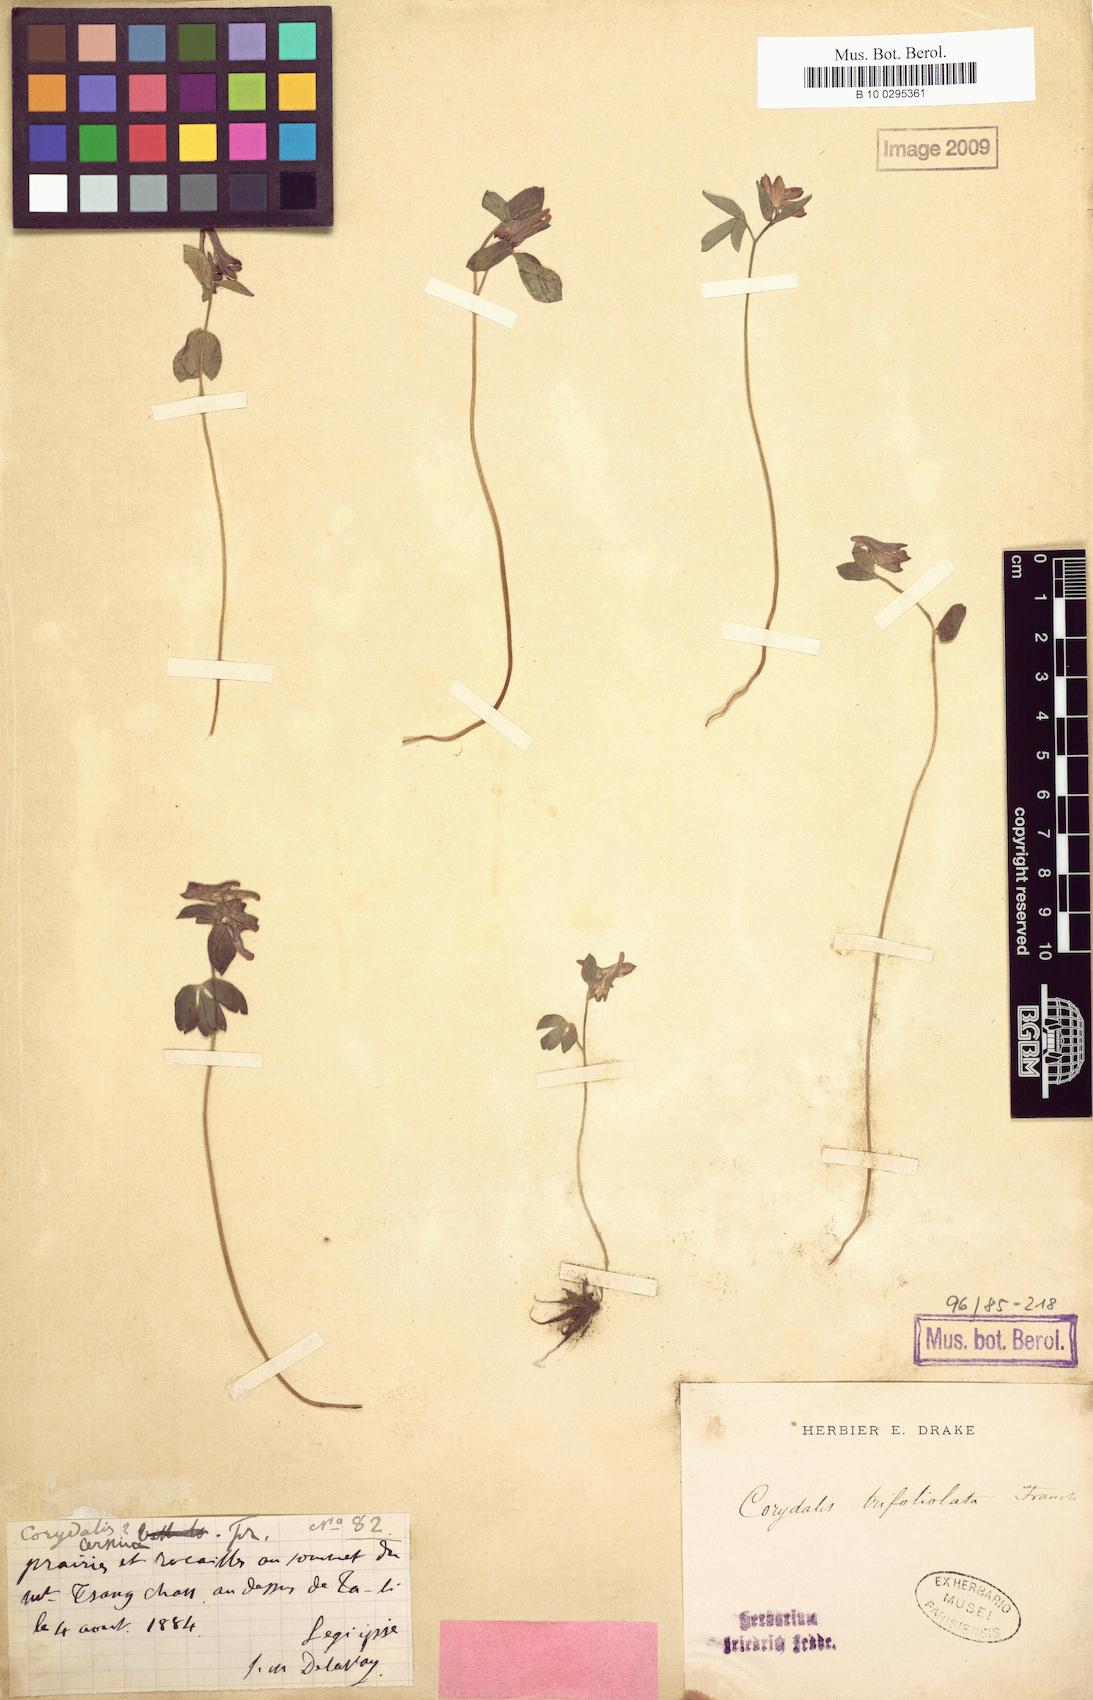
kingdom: Plantae
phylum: Tracheophyta
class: Magnoliopsida
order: Ranunculales
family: Papaveraceae
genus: Corydalis
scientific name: Corydalis trifoliolata
